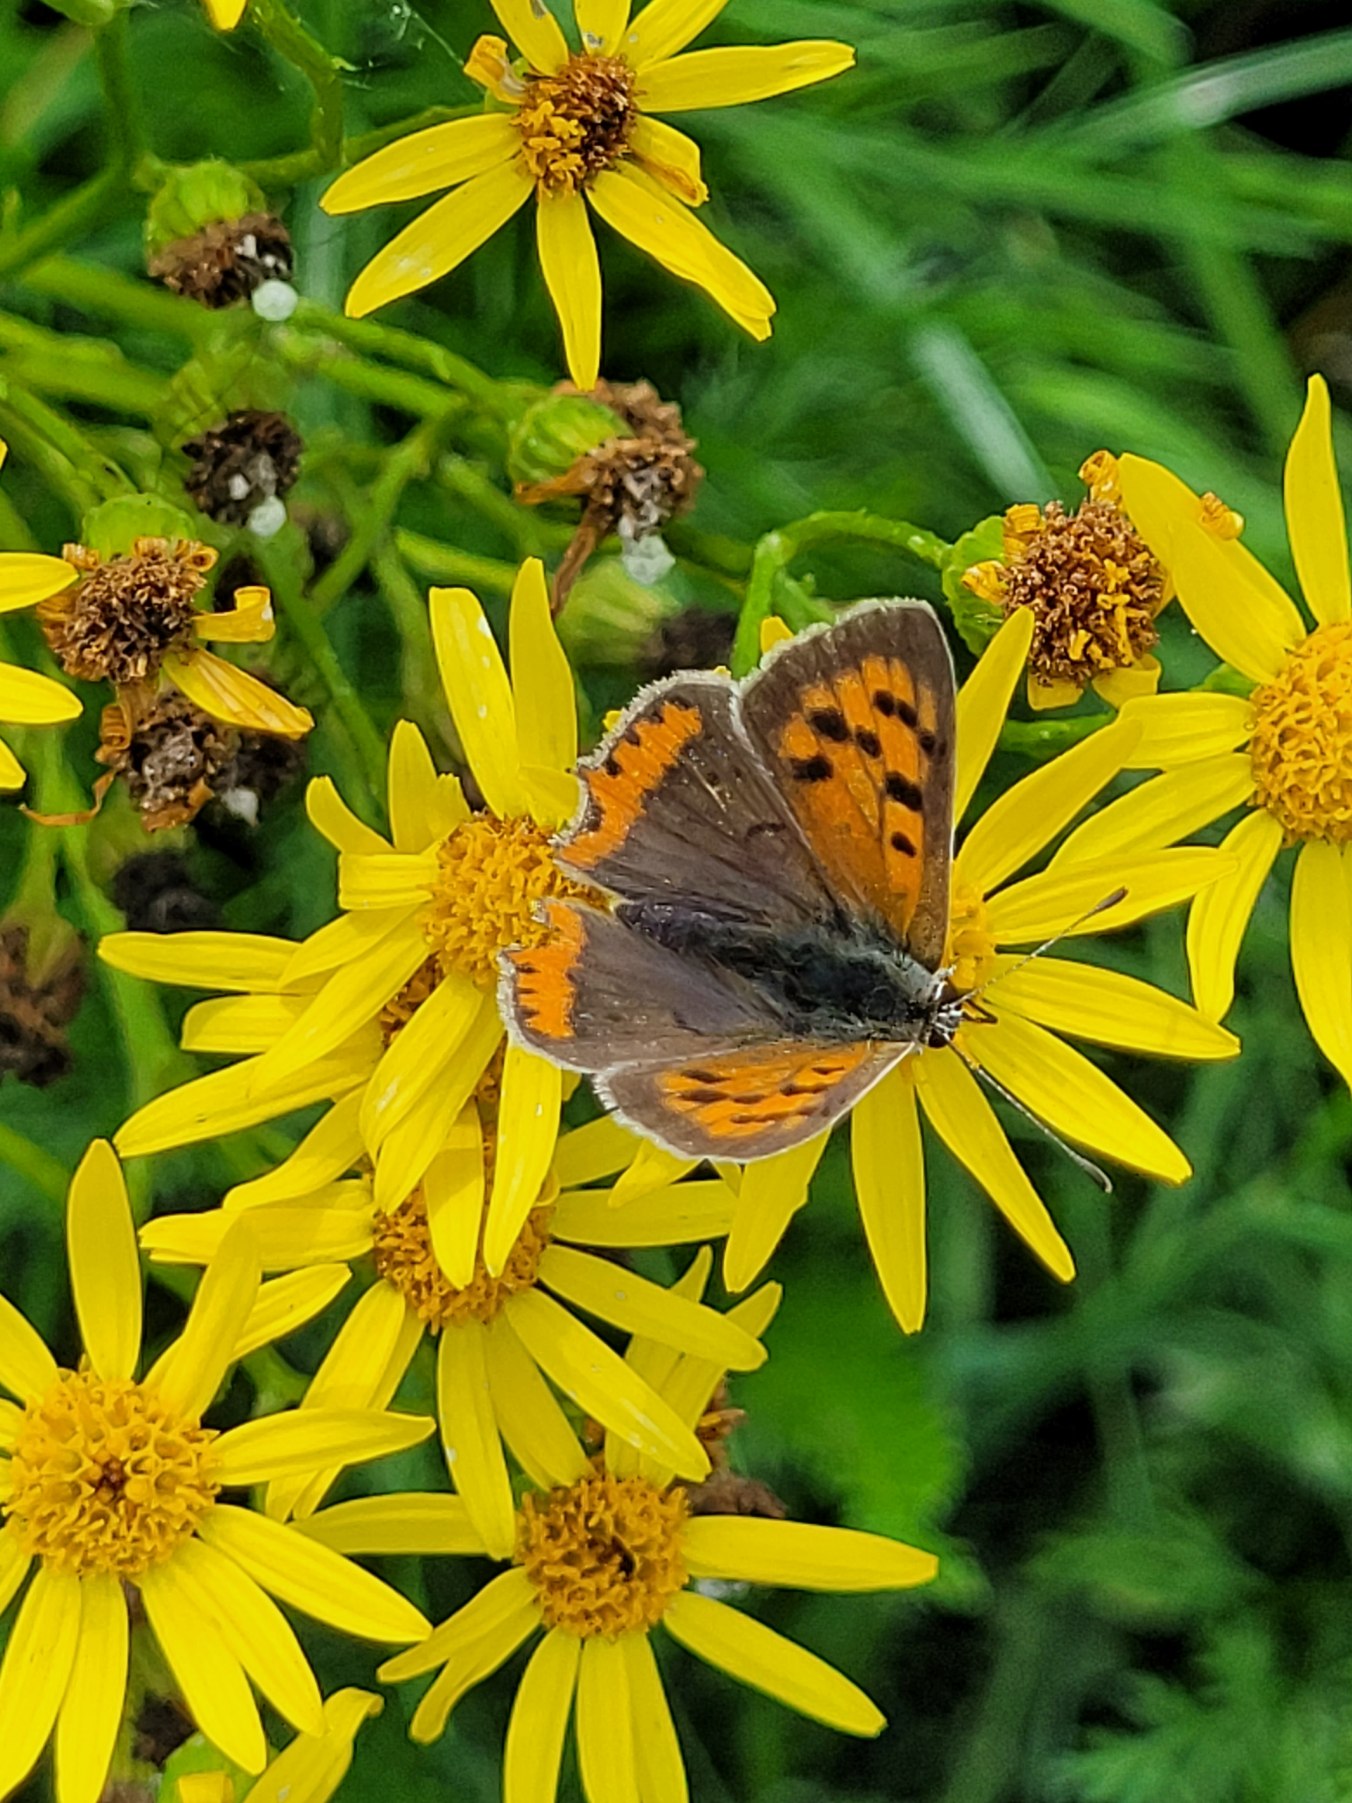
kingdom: Animalia
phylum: Arthropoda
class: Insecta
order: Lepidoptera
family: Lycaenidae
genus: Lycaena
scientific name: Lycaena phlaeas
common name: Lille ildfugl
